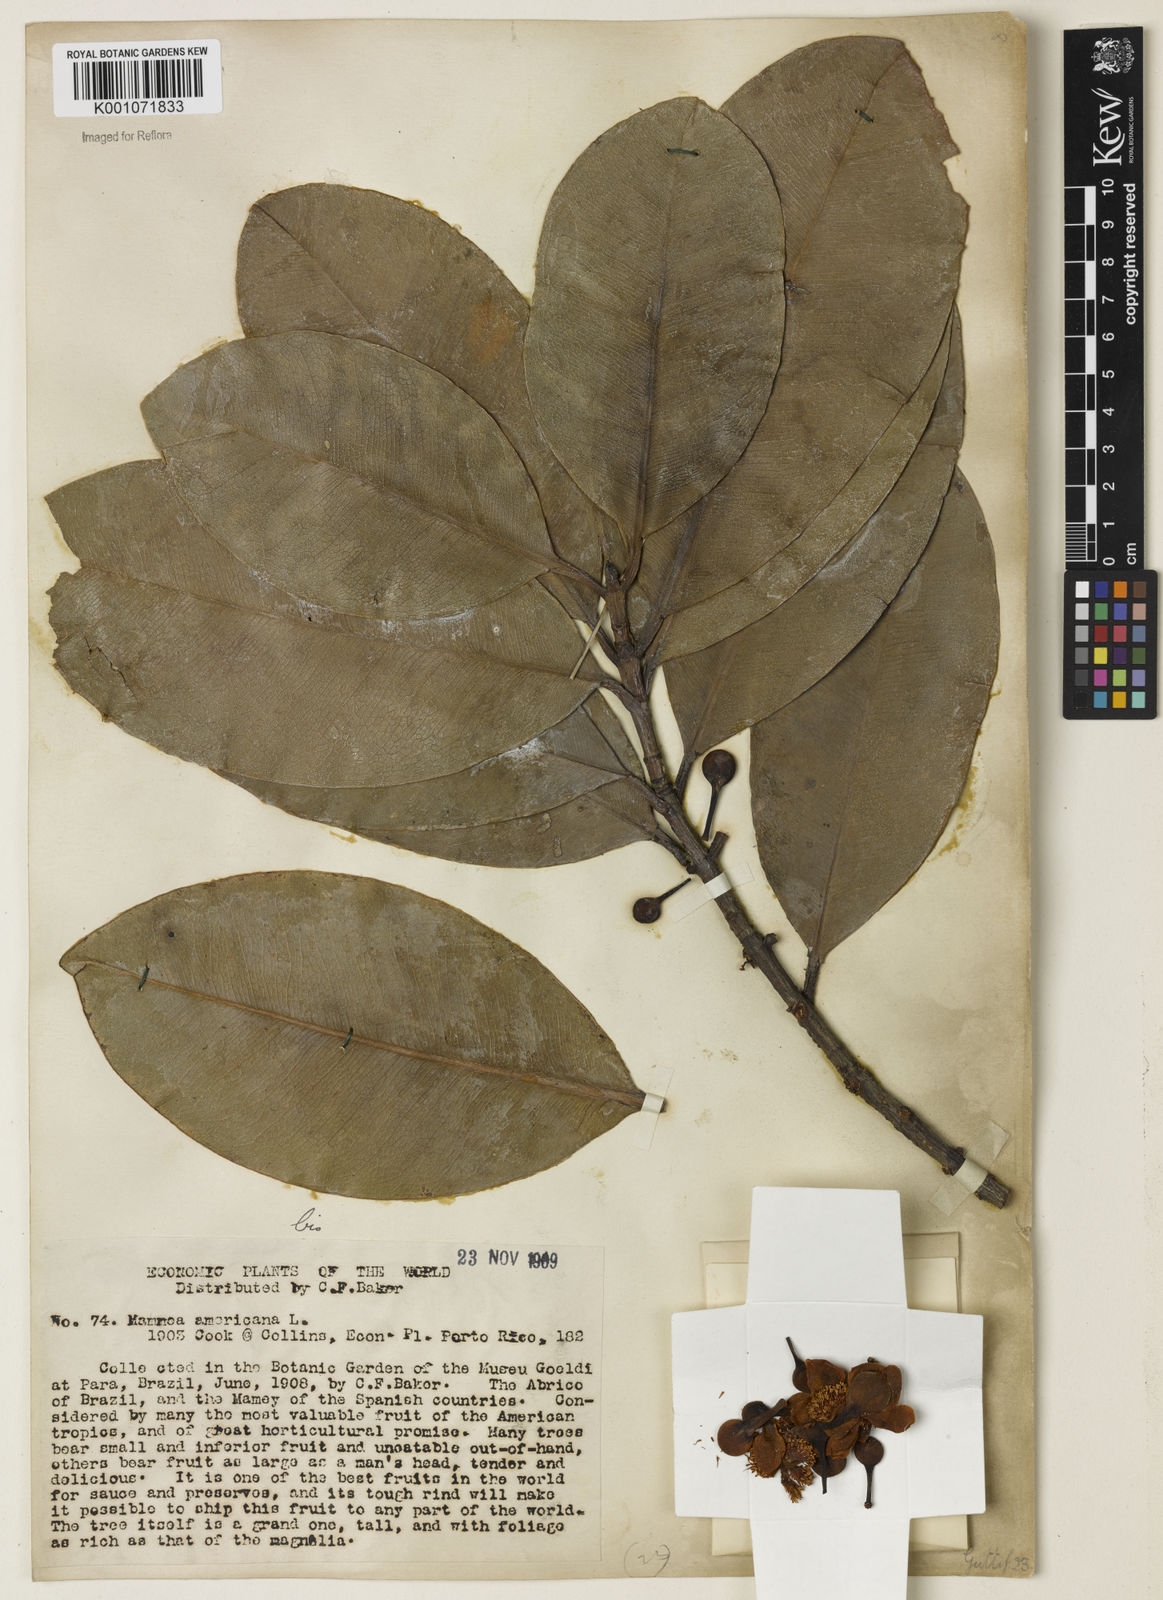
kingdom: Plantae
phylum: Tracheophyta
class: Magnoliopsida
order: Malpighiales
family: Calophyllaceae
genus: Mammea
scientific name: Mammea americana
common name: Mamey
